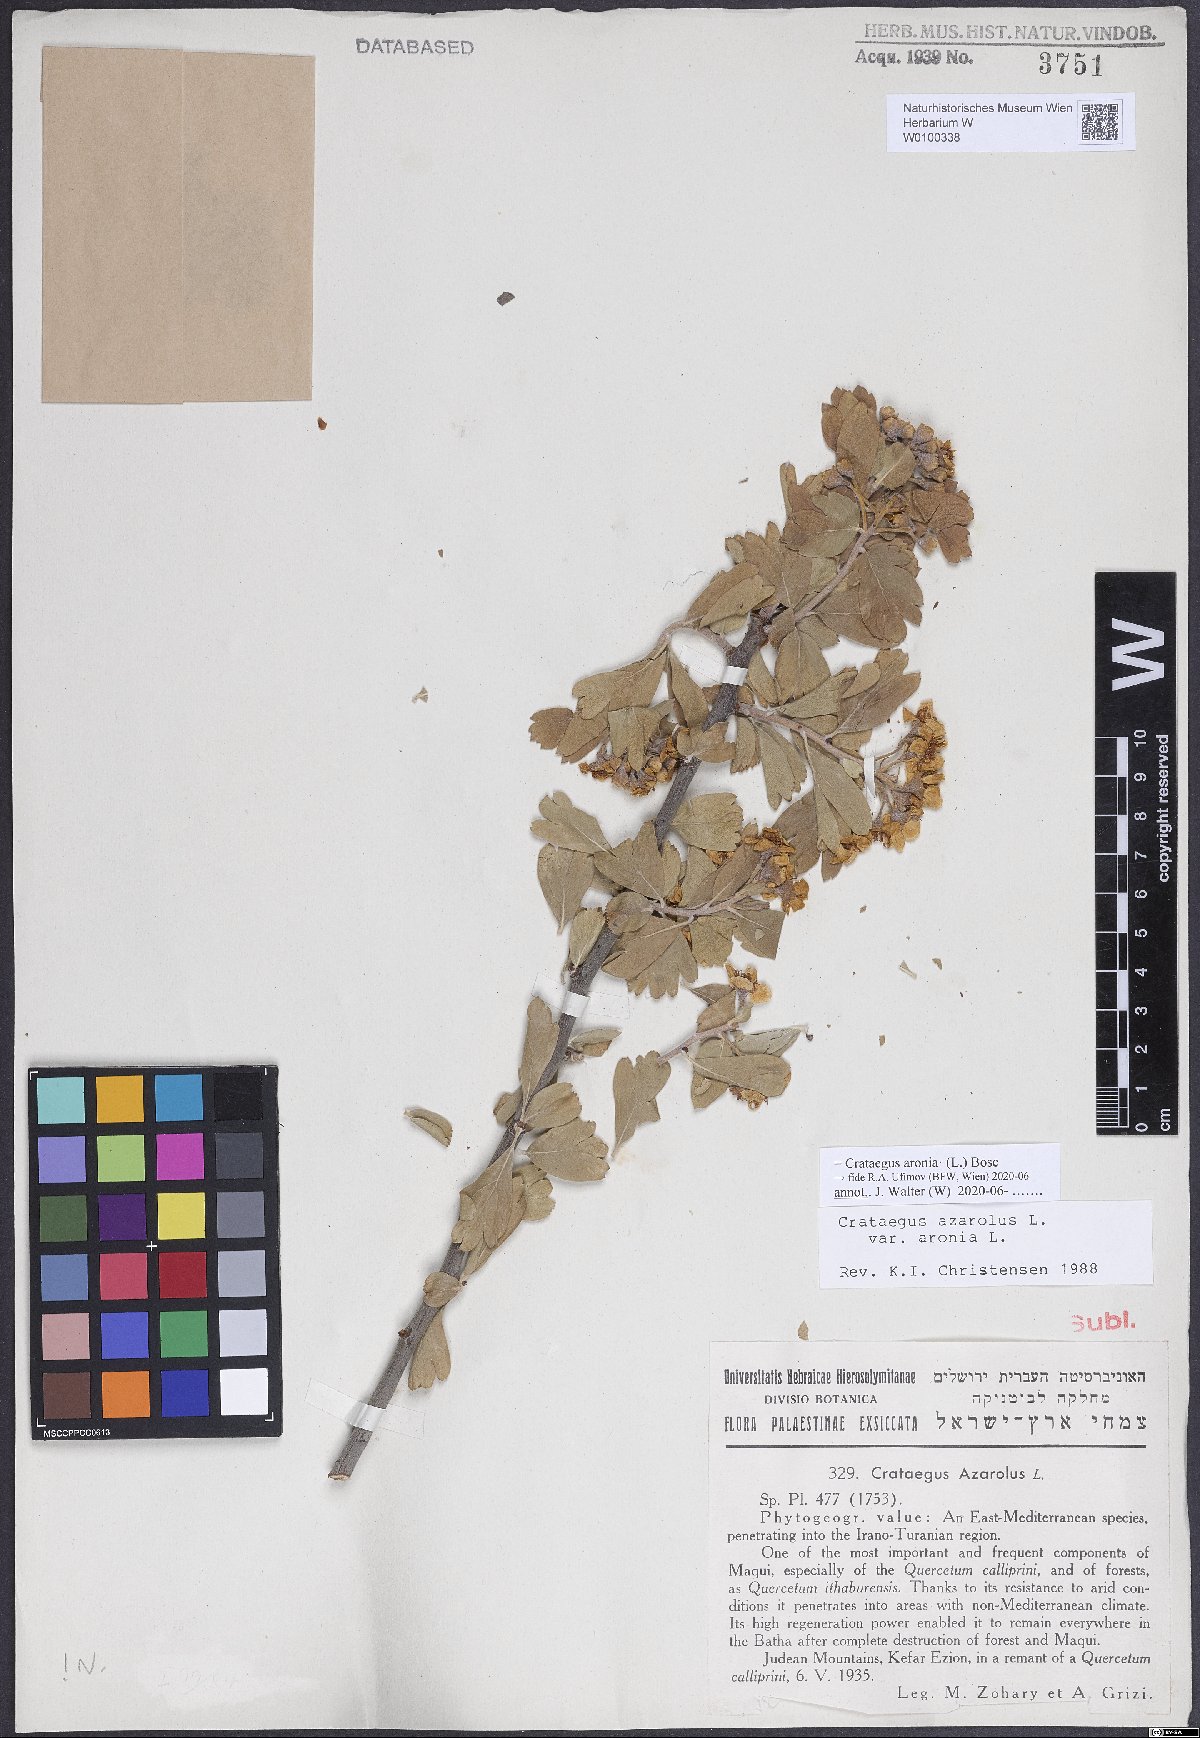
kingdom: Plantae
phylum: Tracheophyta
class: Magnoliopsida
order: Rosales
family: Rosaceae
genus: Crataegus
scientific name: Crataegus azarolus
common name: Azarole
